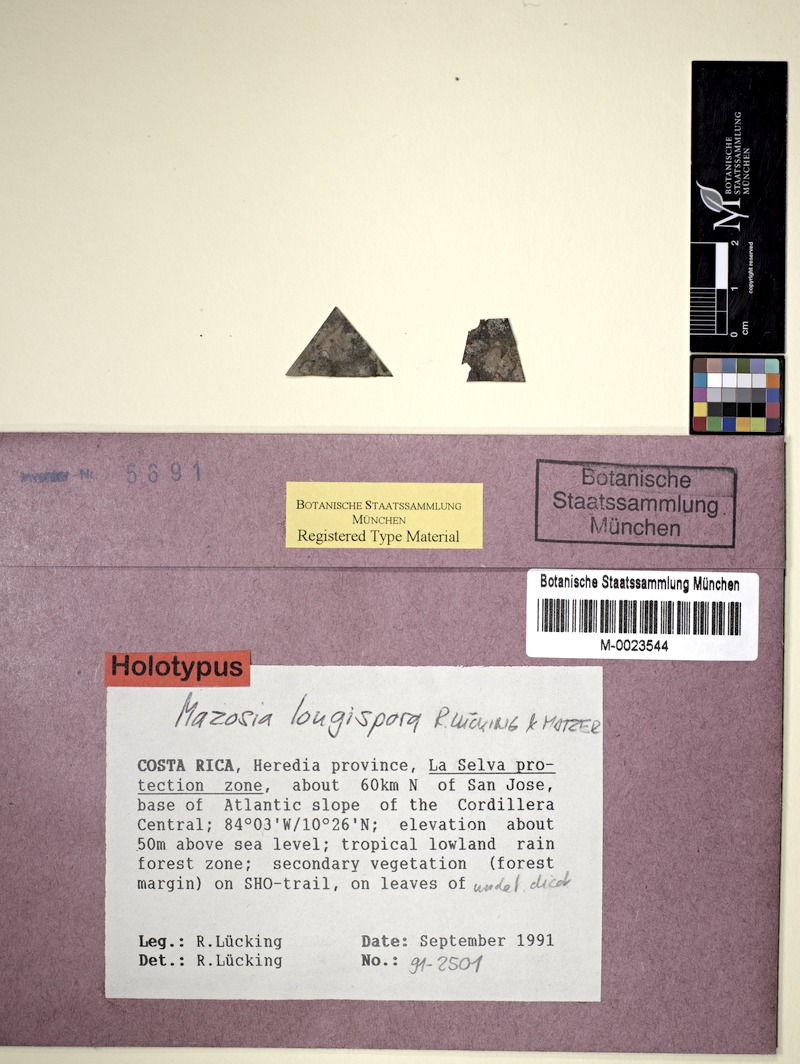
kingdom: Fungi
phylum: Ascomycota
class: Arthoniomycetes
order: Arthoniales
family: Roccellaceae
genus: Mazosia
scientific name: Mazosia longispora
